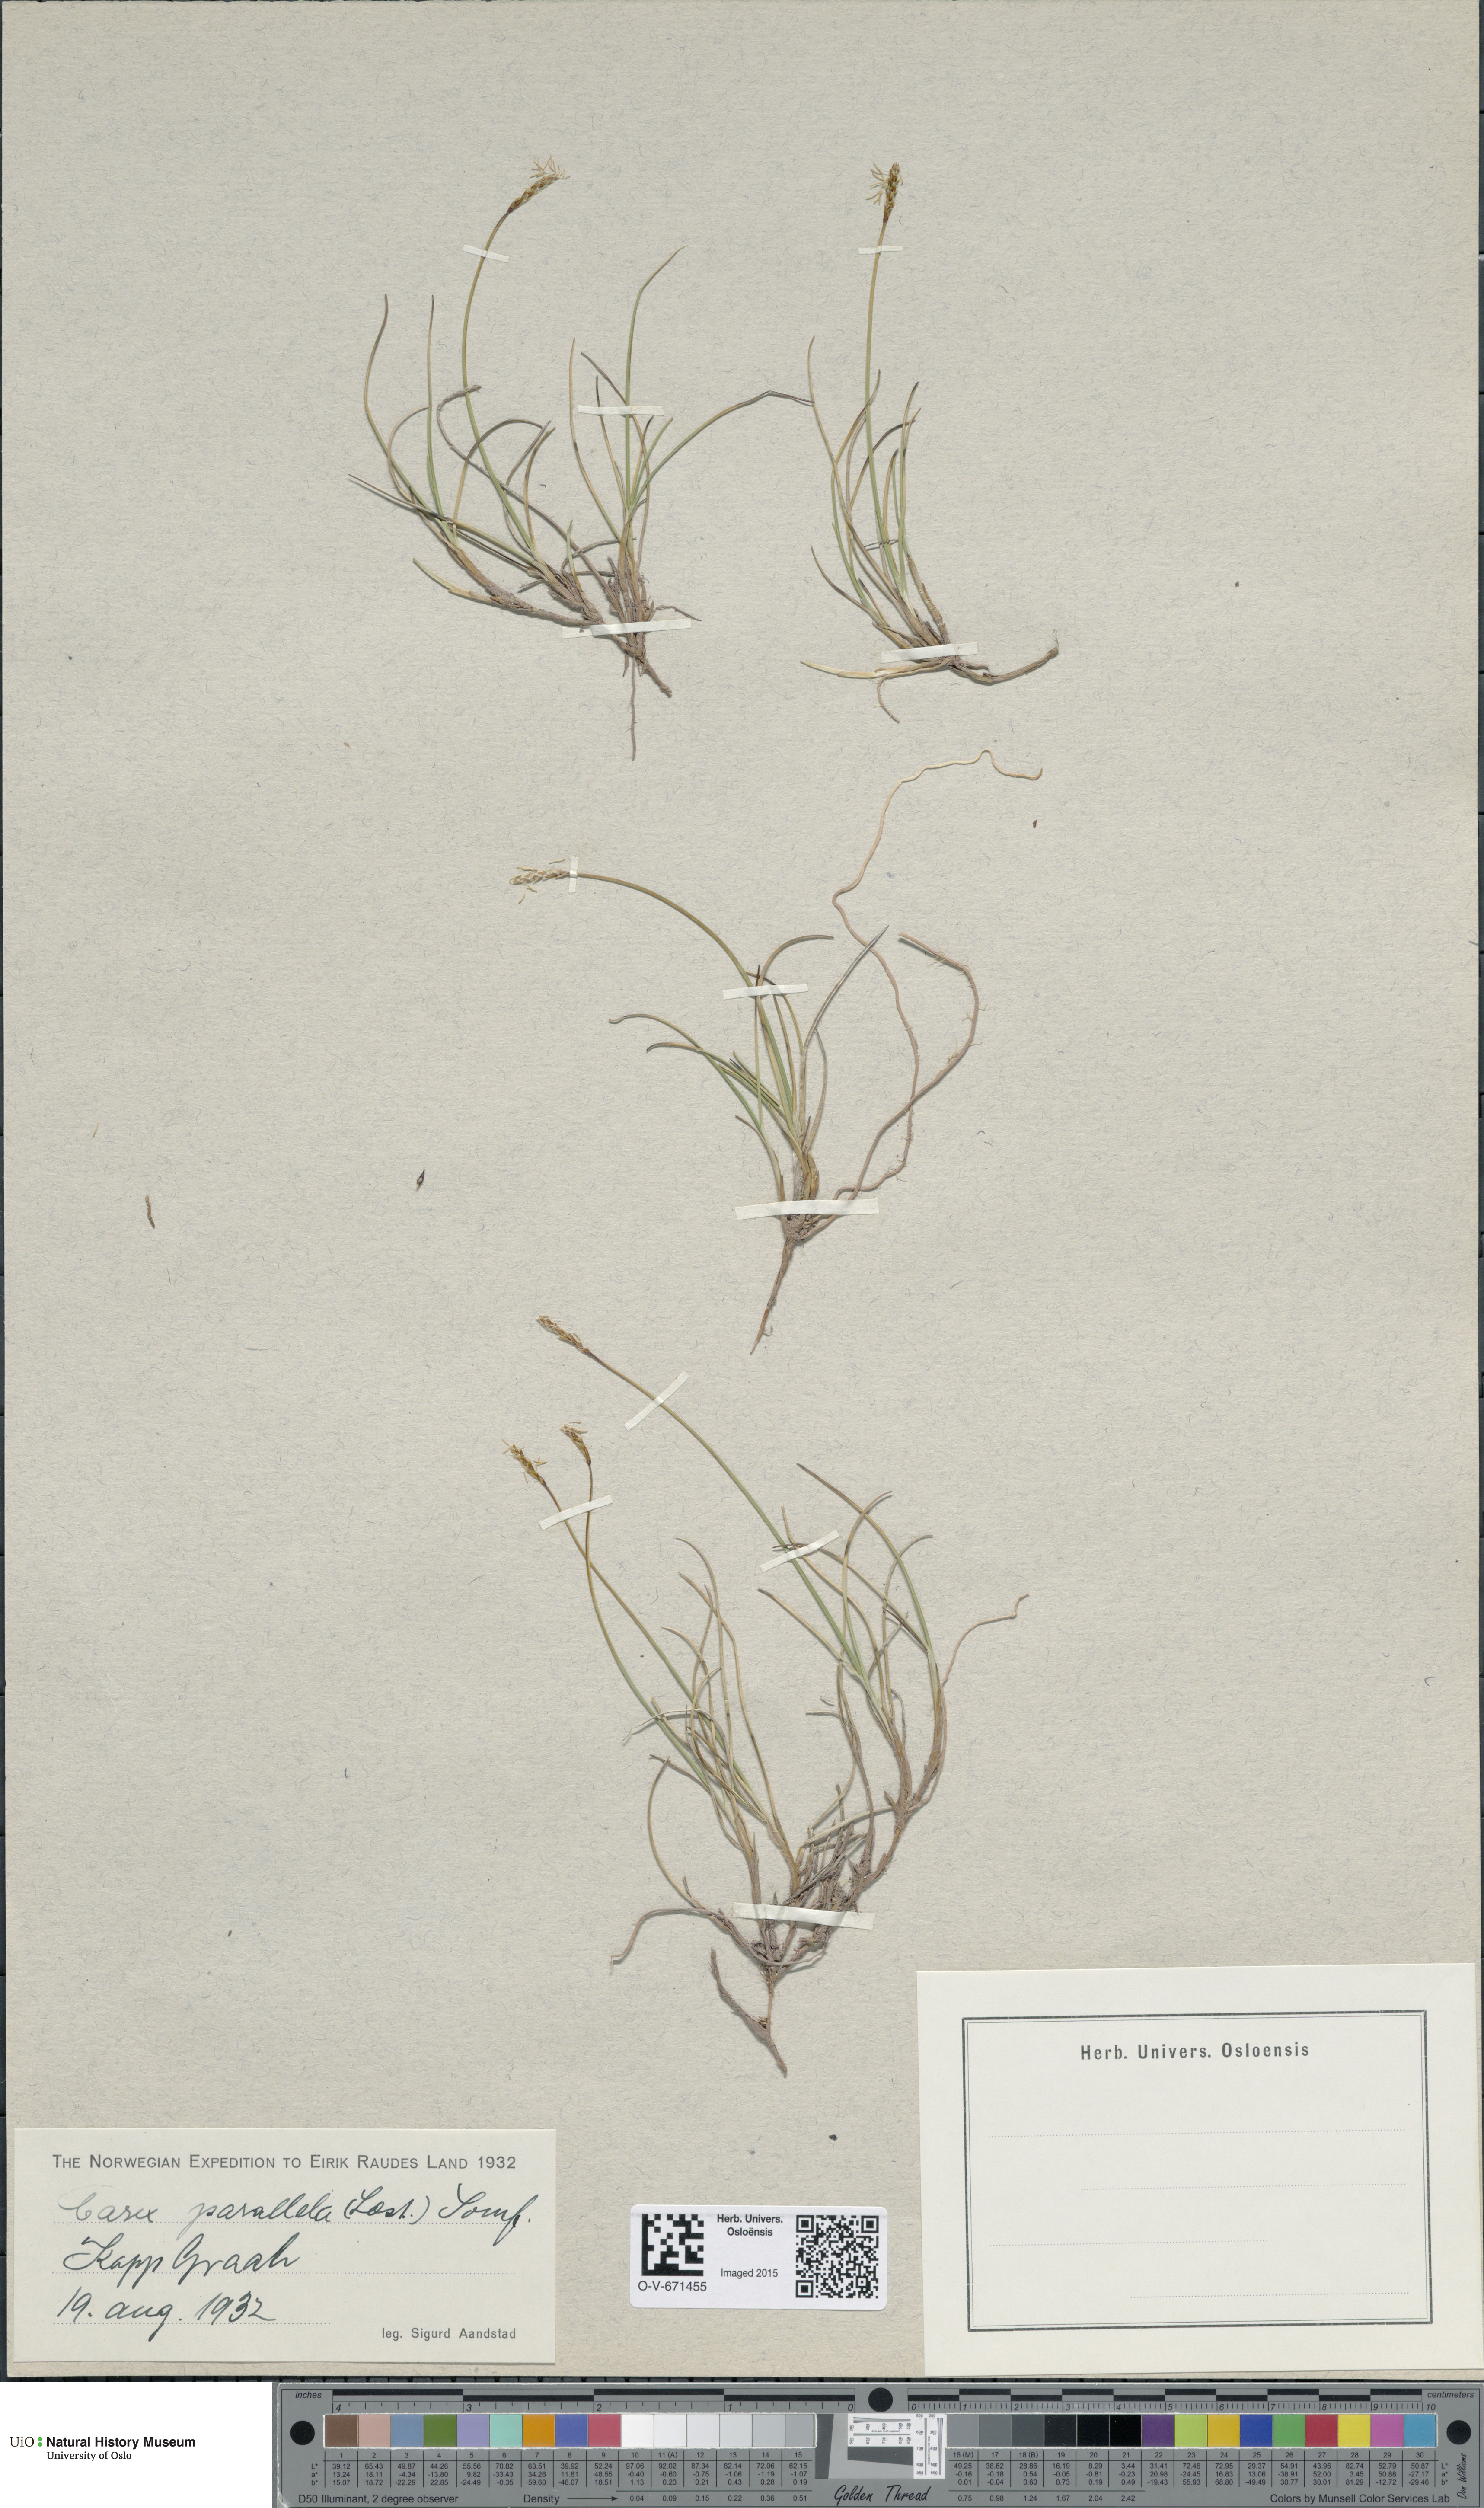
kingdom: Plantae
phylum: Tracheophyta
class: Liliopsida
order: Poales
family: Cyperaceae
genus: Carex
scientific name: Carex parallela
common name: Parallel sedge
